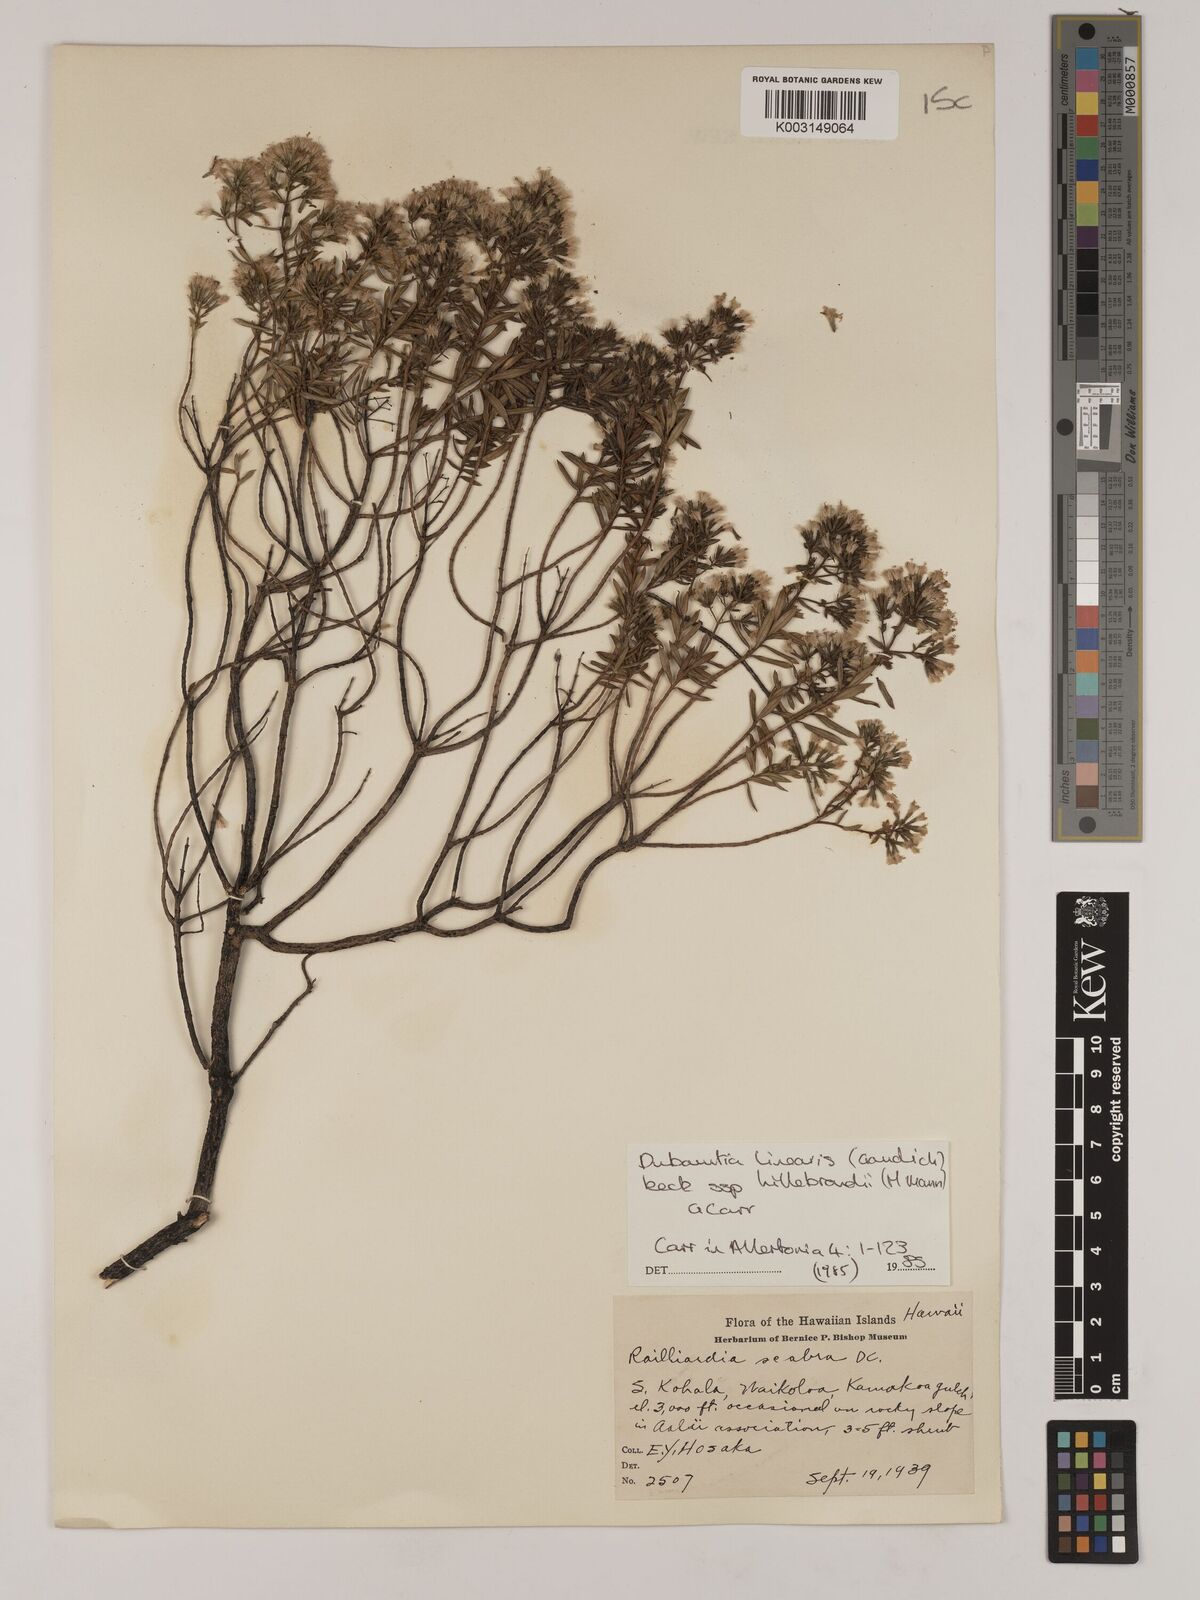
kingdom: Plantae
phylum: Tracheophyta
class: Magnoliopsida
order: Asterales
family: Asteraceae
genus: Dubautia
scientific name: Dubautia linearis
